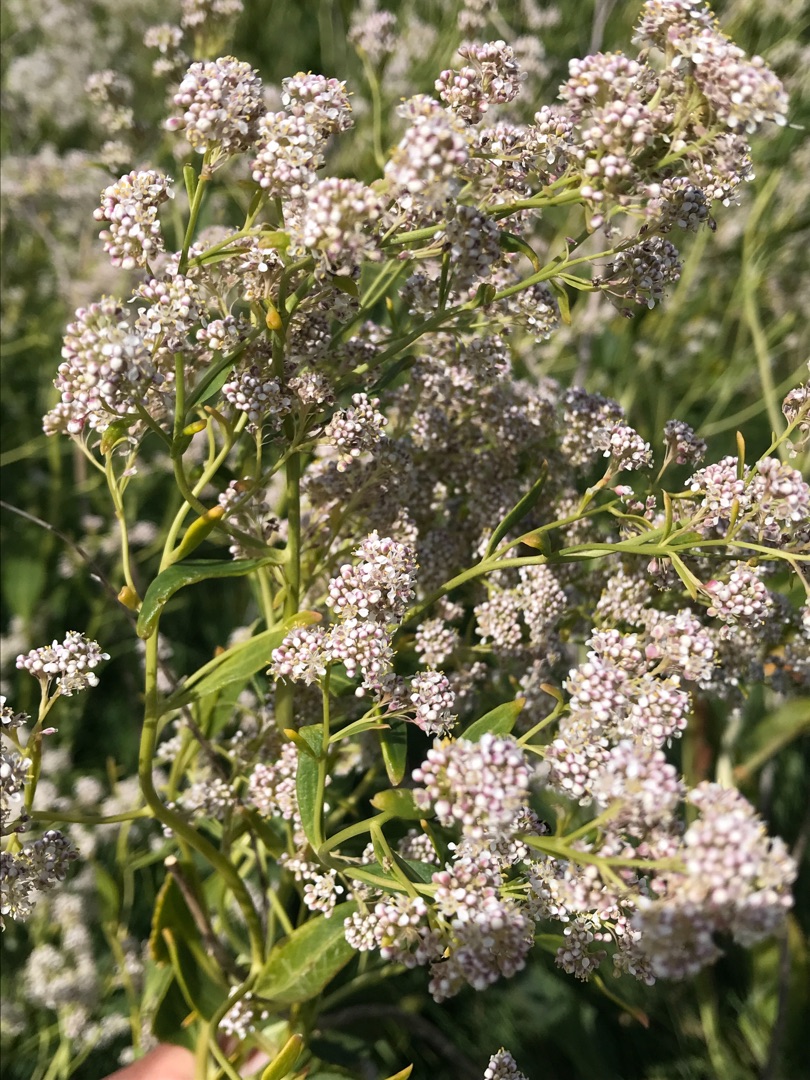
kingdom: Plantae
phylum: Tracheophyta
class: Magnoliopsida
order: Brassicales
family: Brassicaceae
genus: Lepidium
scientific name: Lepidium latifolium
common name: Strand-karse
